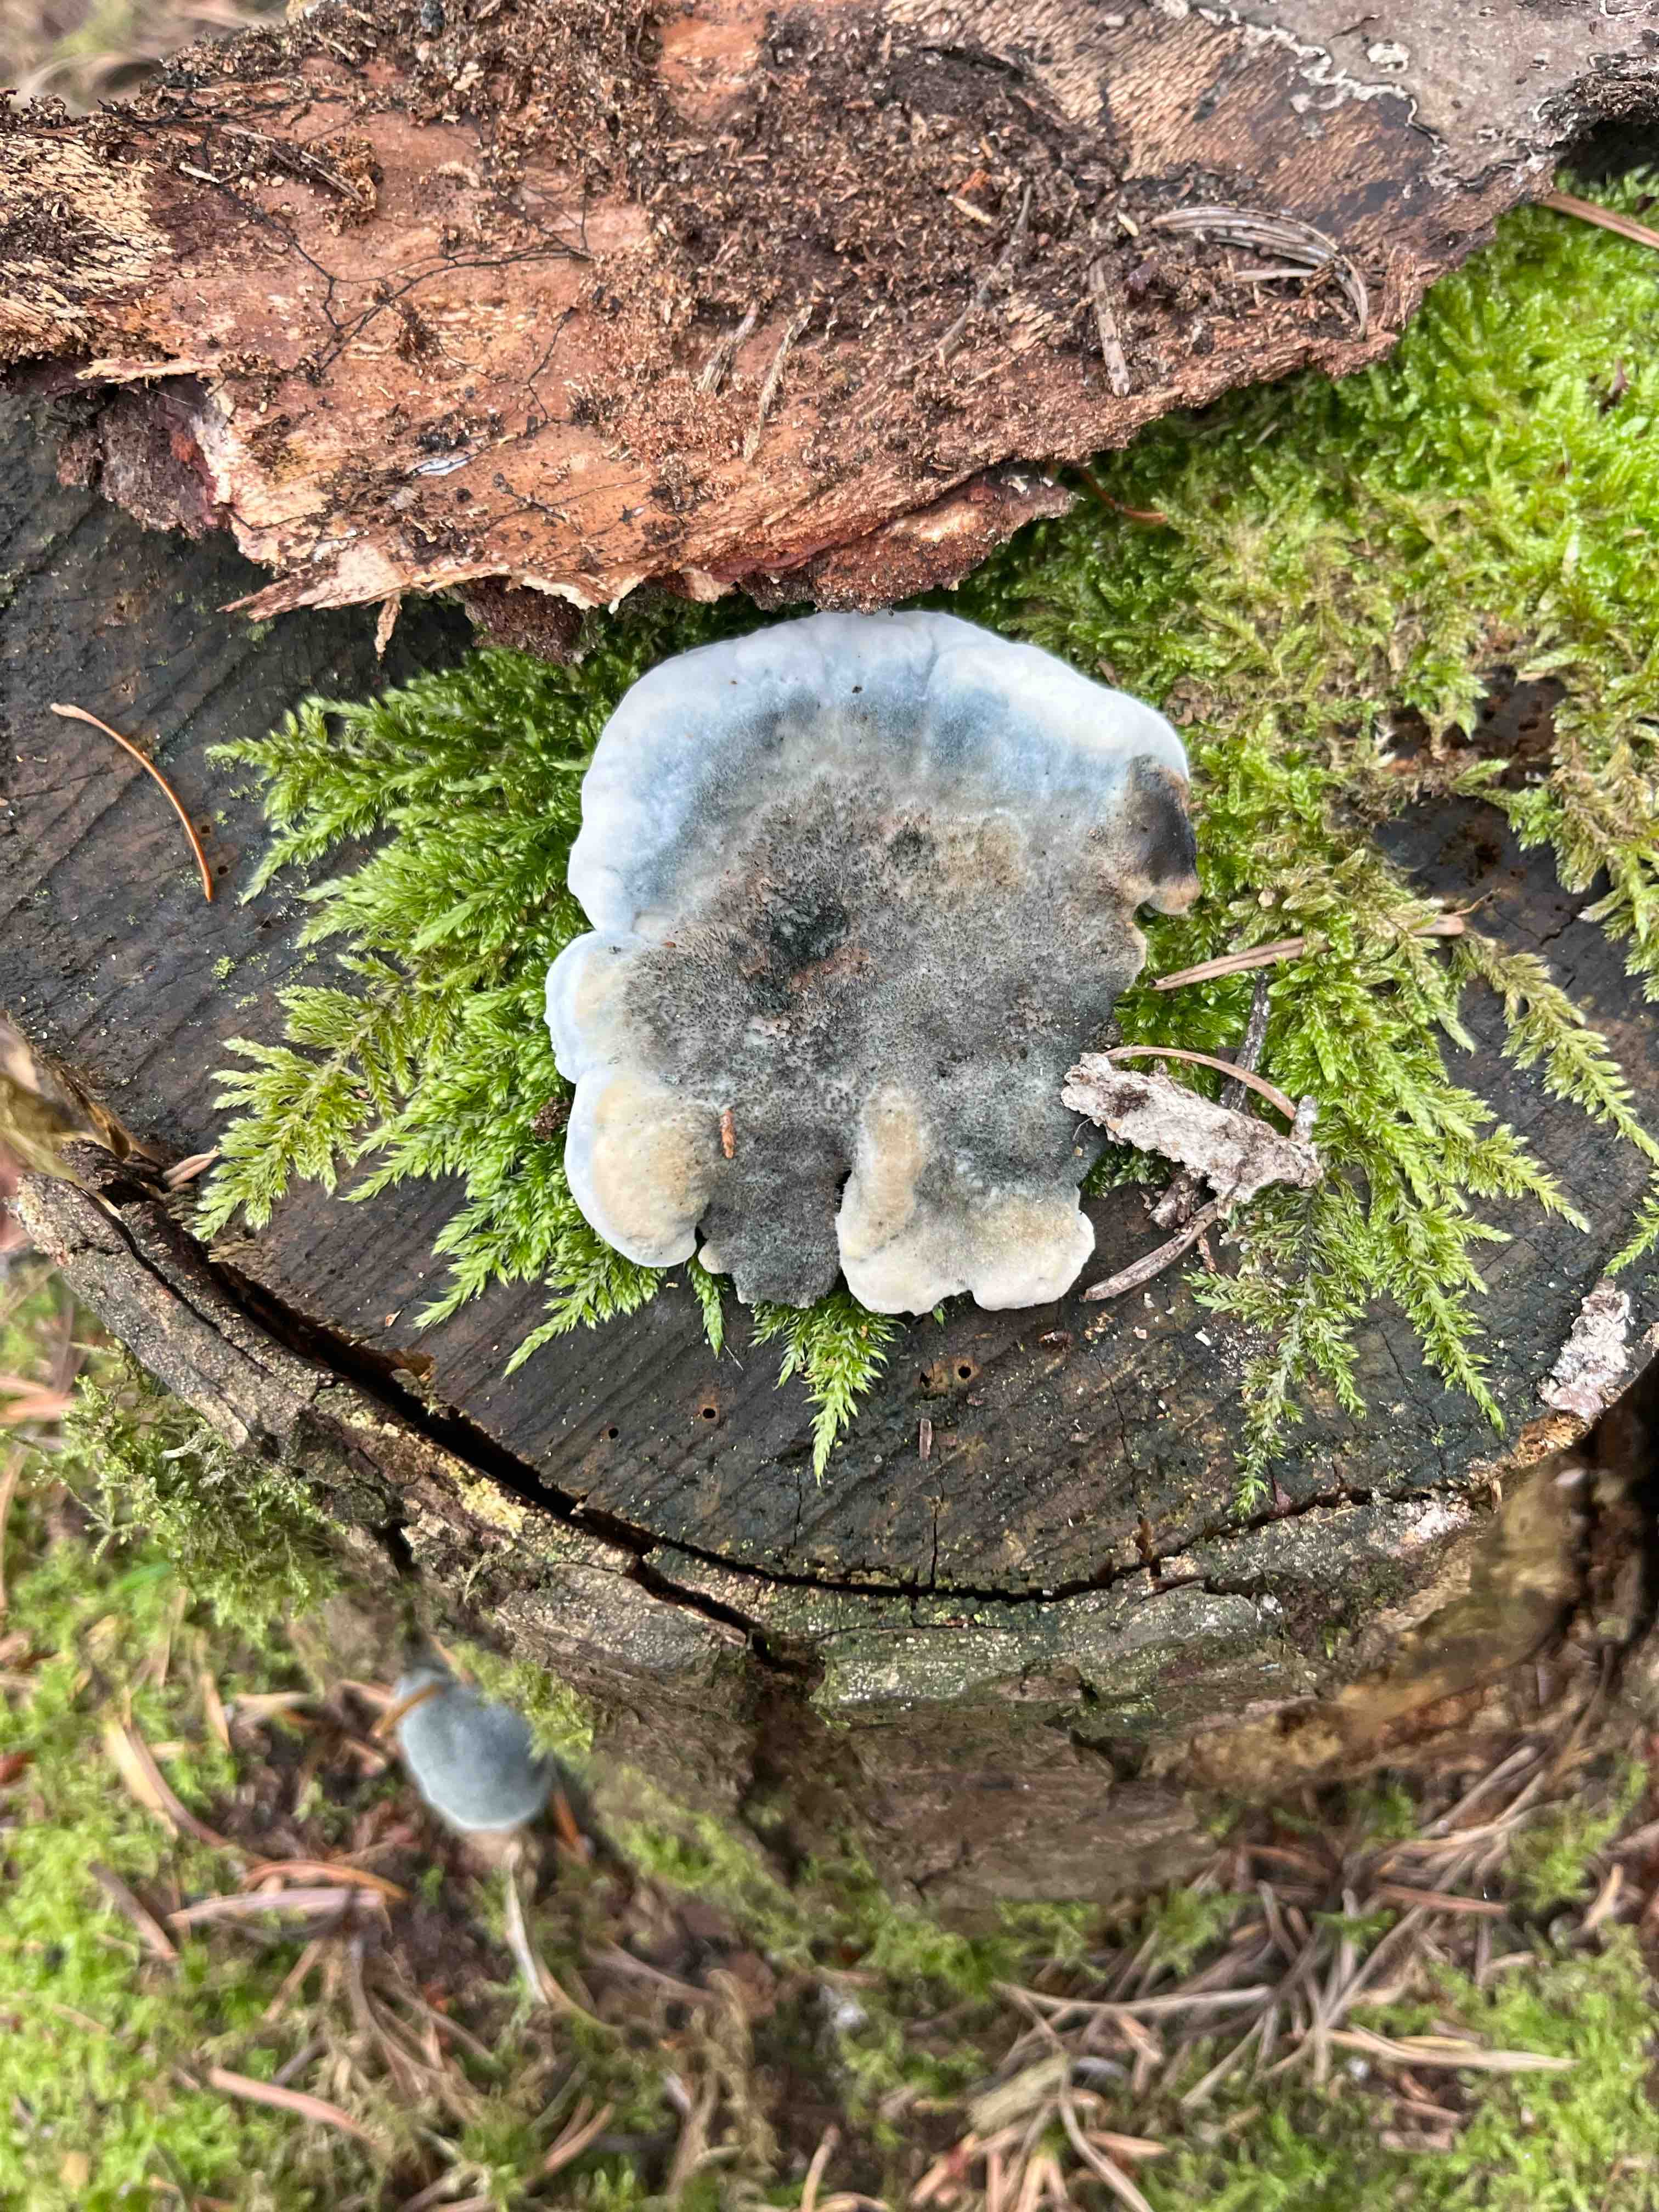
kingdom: Fungi
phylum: Basidiomycota
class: Agaricomycetes
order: Polyporales
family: Polyporaceae
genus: Cyanosporus
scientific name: Cyanosporus caesius
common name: blålig kødporesvamp
